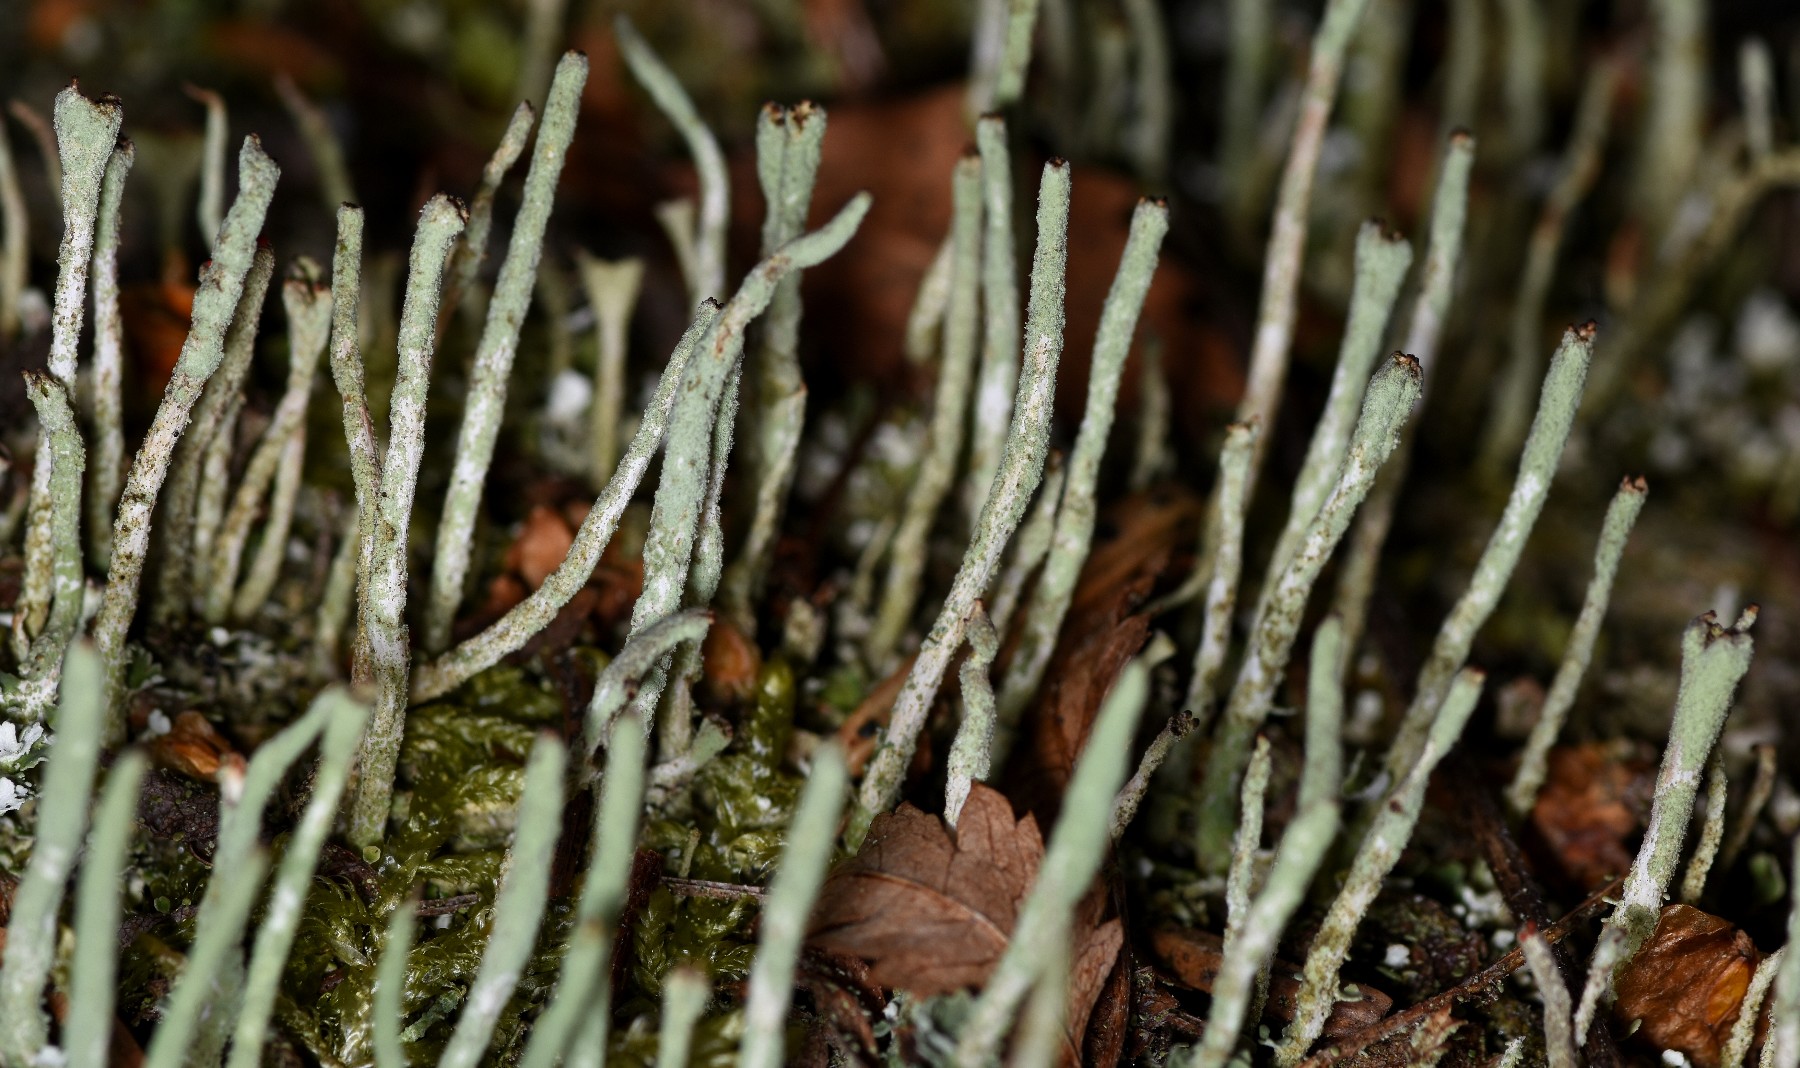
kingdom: Fungi
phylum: Ascomycota
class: Lecanoromycetes
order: Lecanorales
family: Cladoniaceae
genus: Cladonia
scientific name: Cladonia ochrochlora
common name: stød-bægerlav
